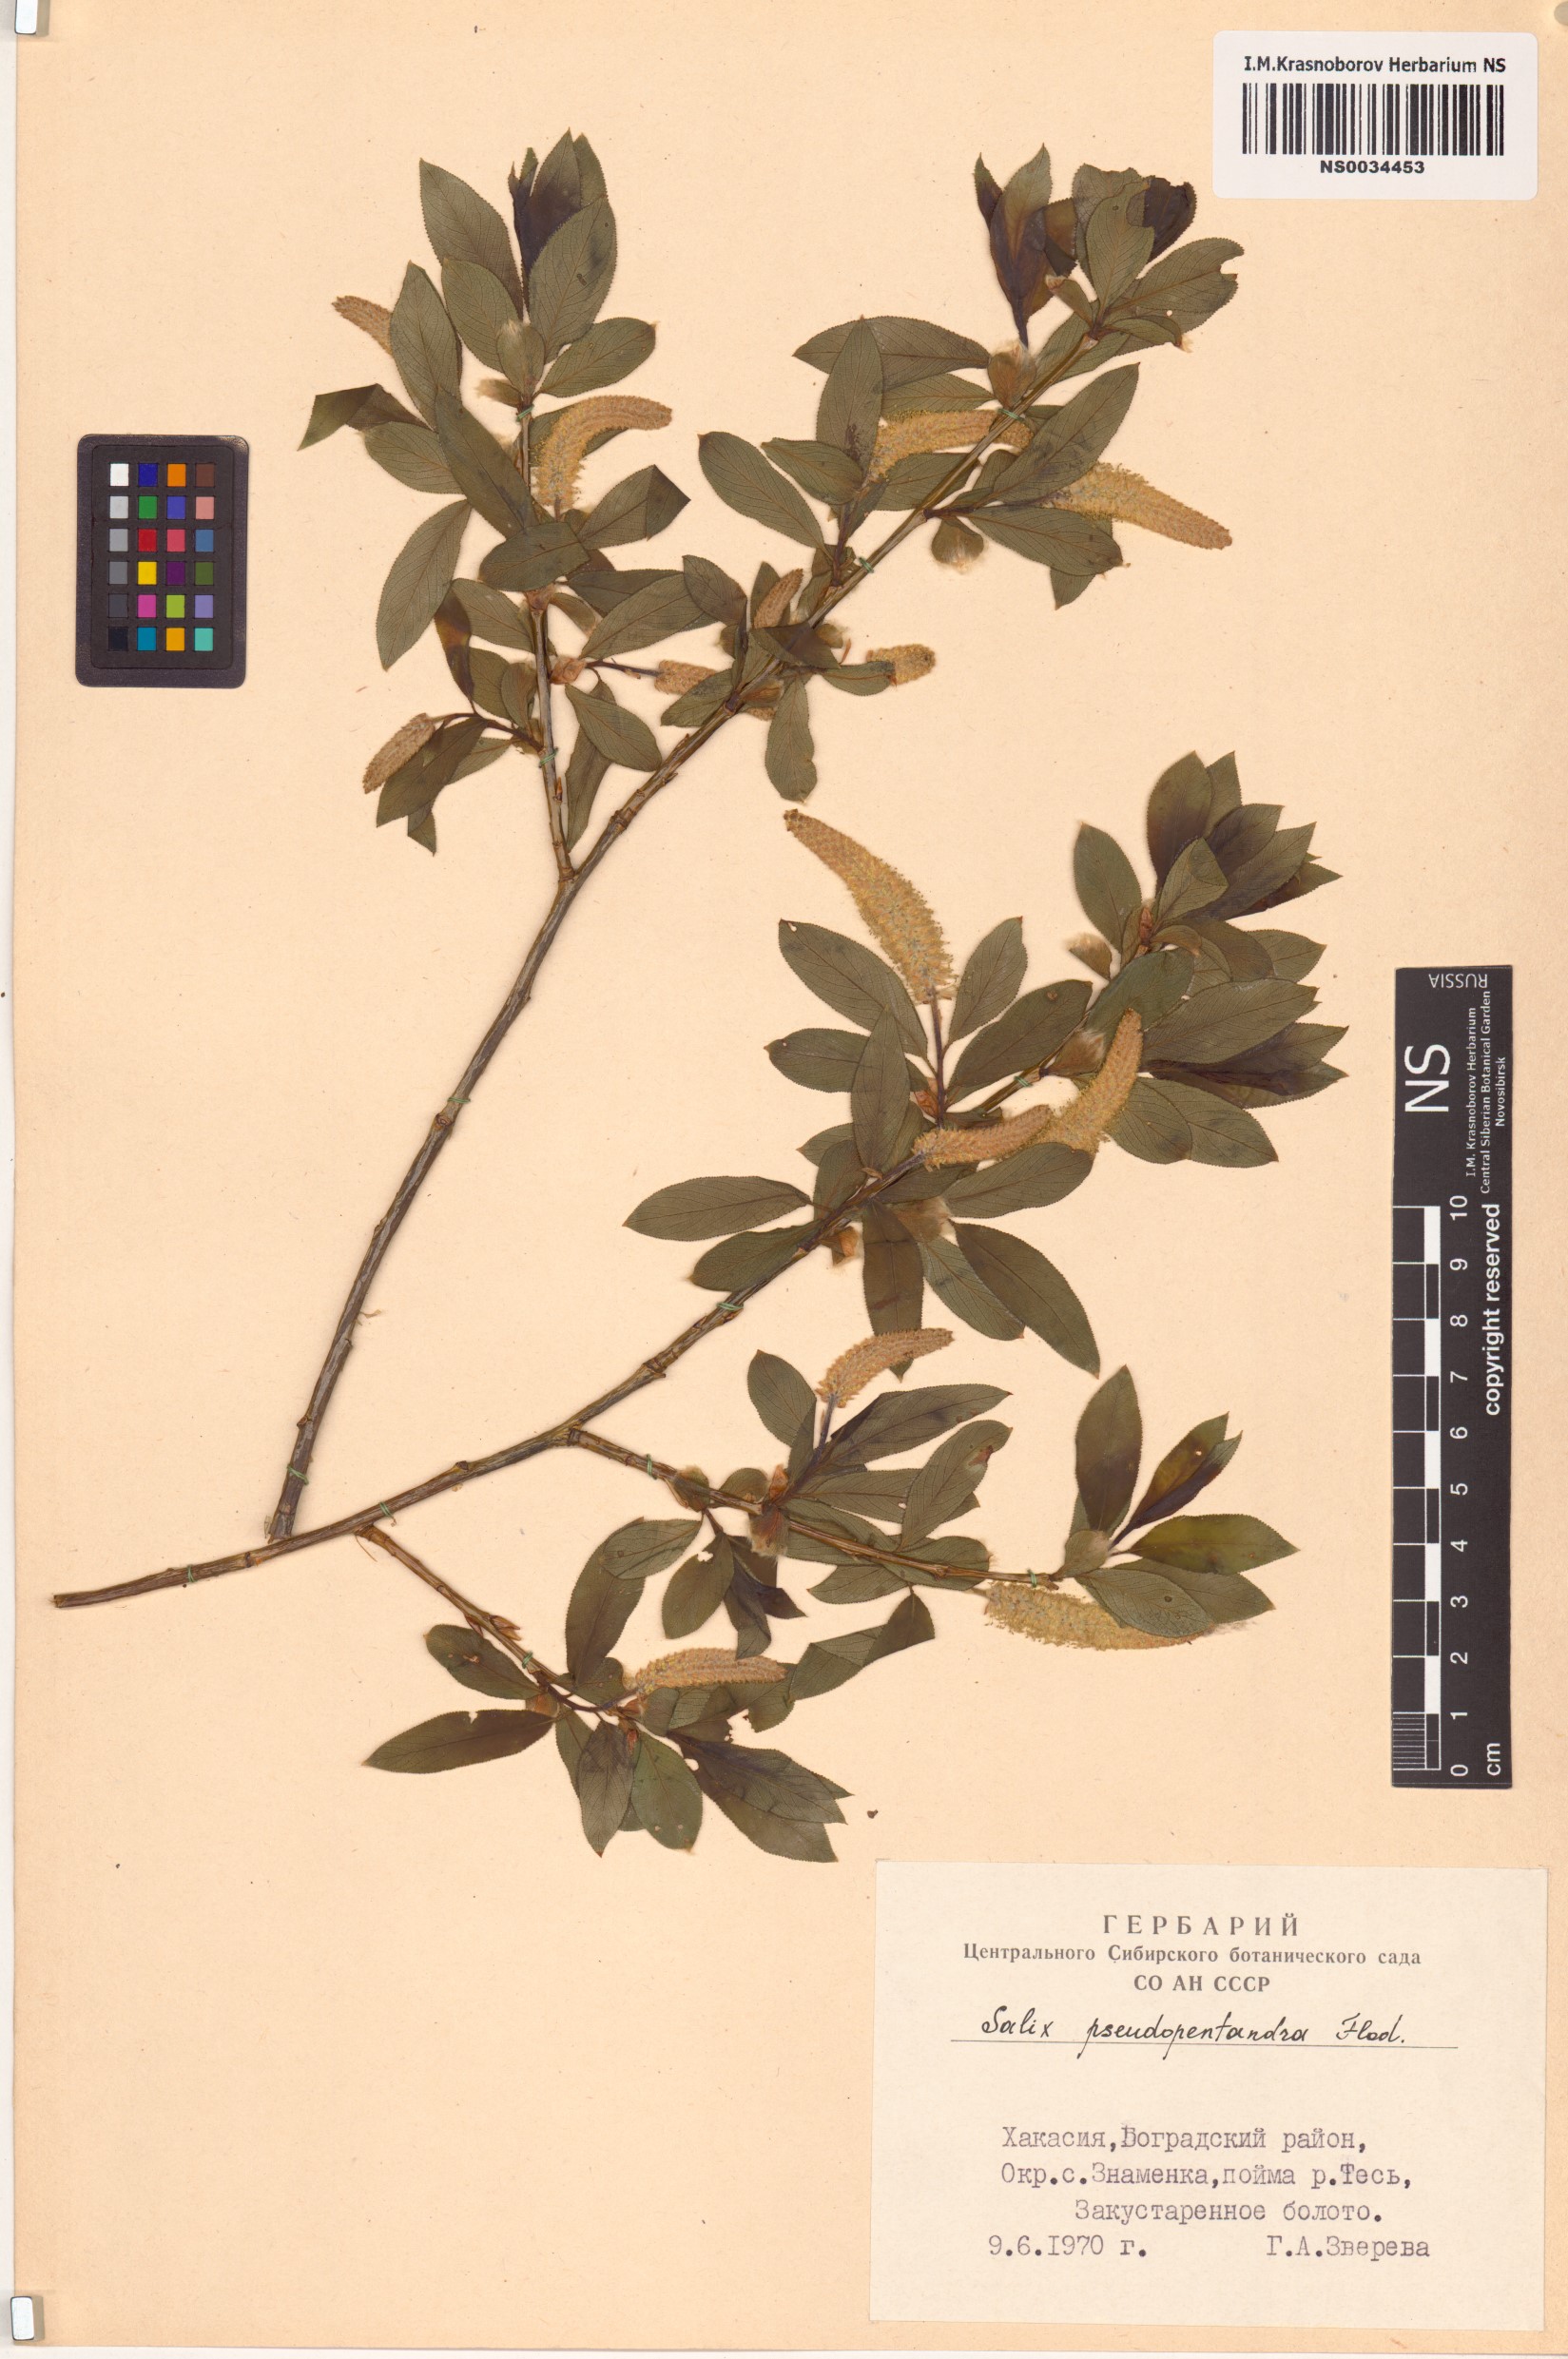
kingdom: Plantae
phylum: Tracheophyta
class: Magnoliopsida
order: Malpighiales
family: Salicaceae
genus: Salix
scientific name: Salix pseudopentandra
